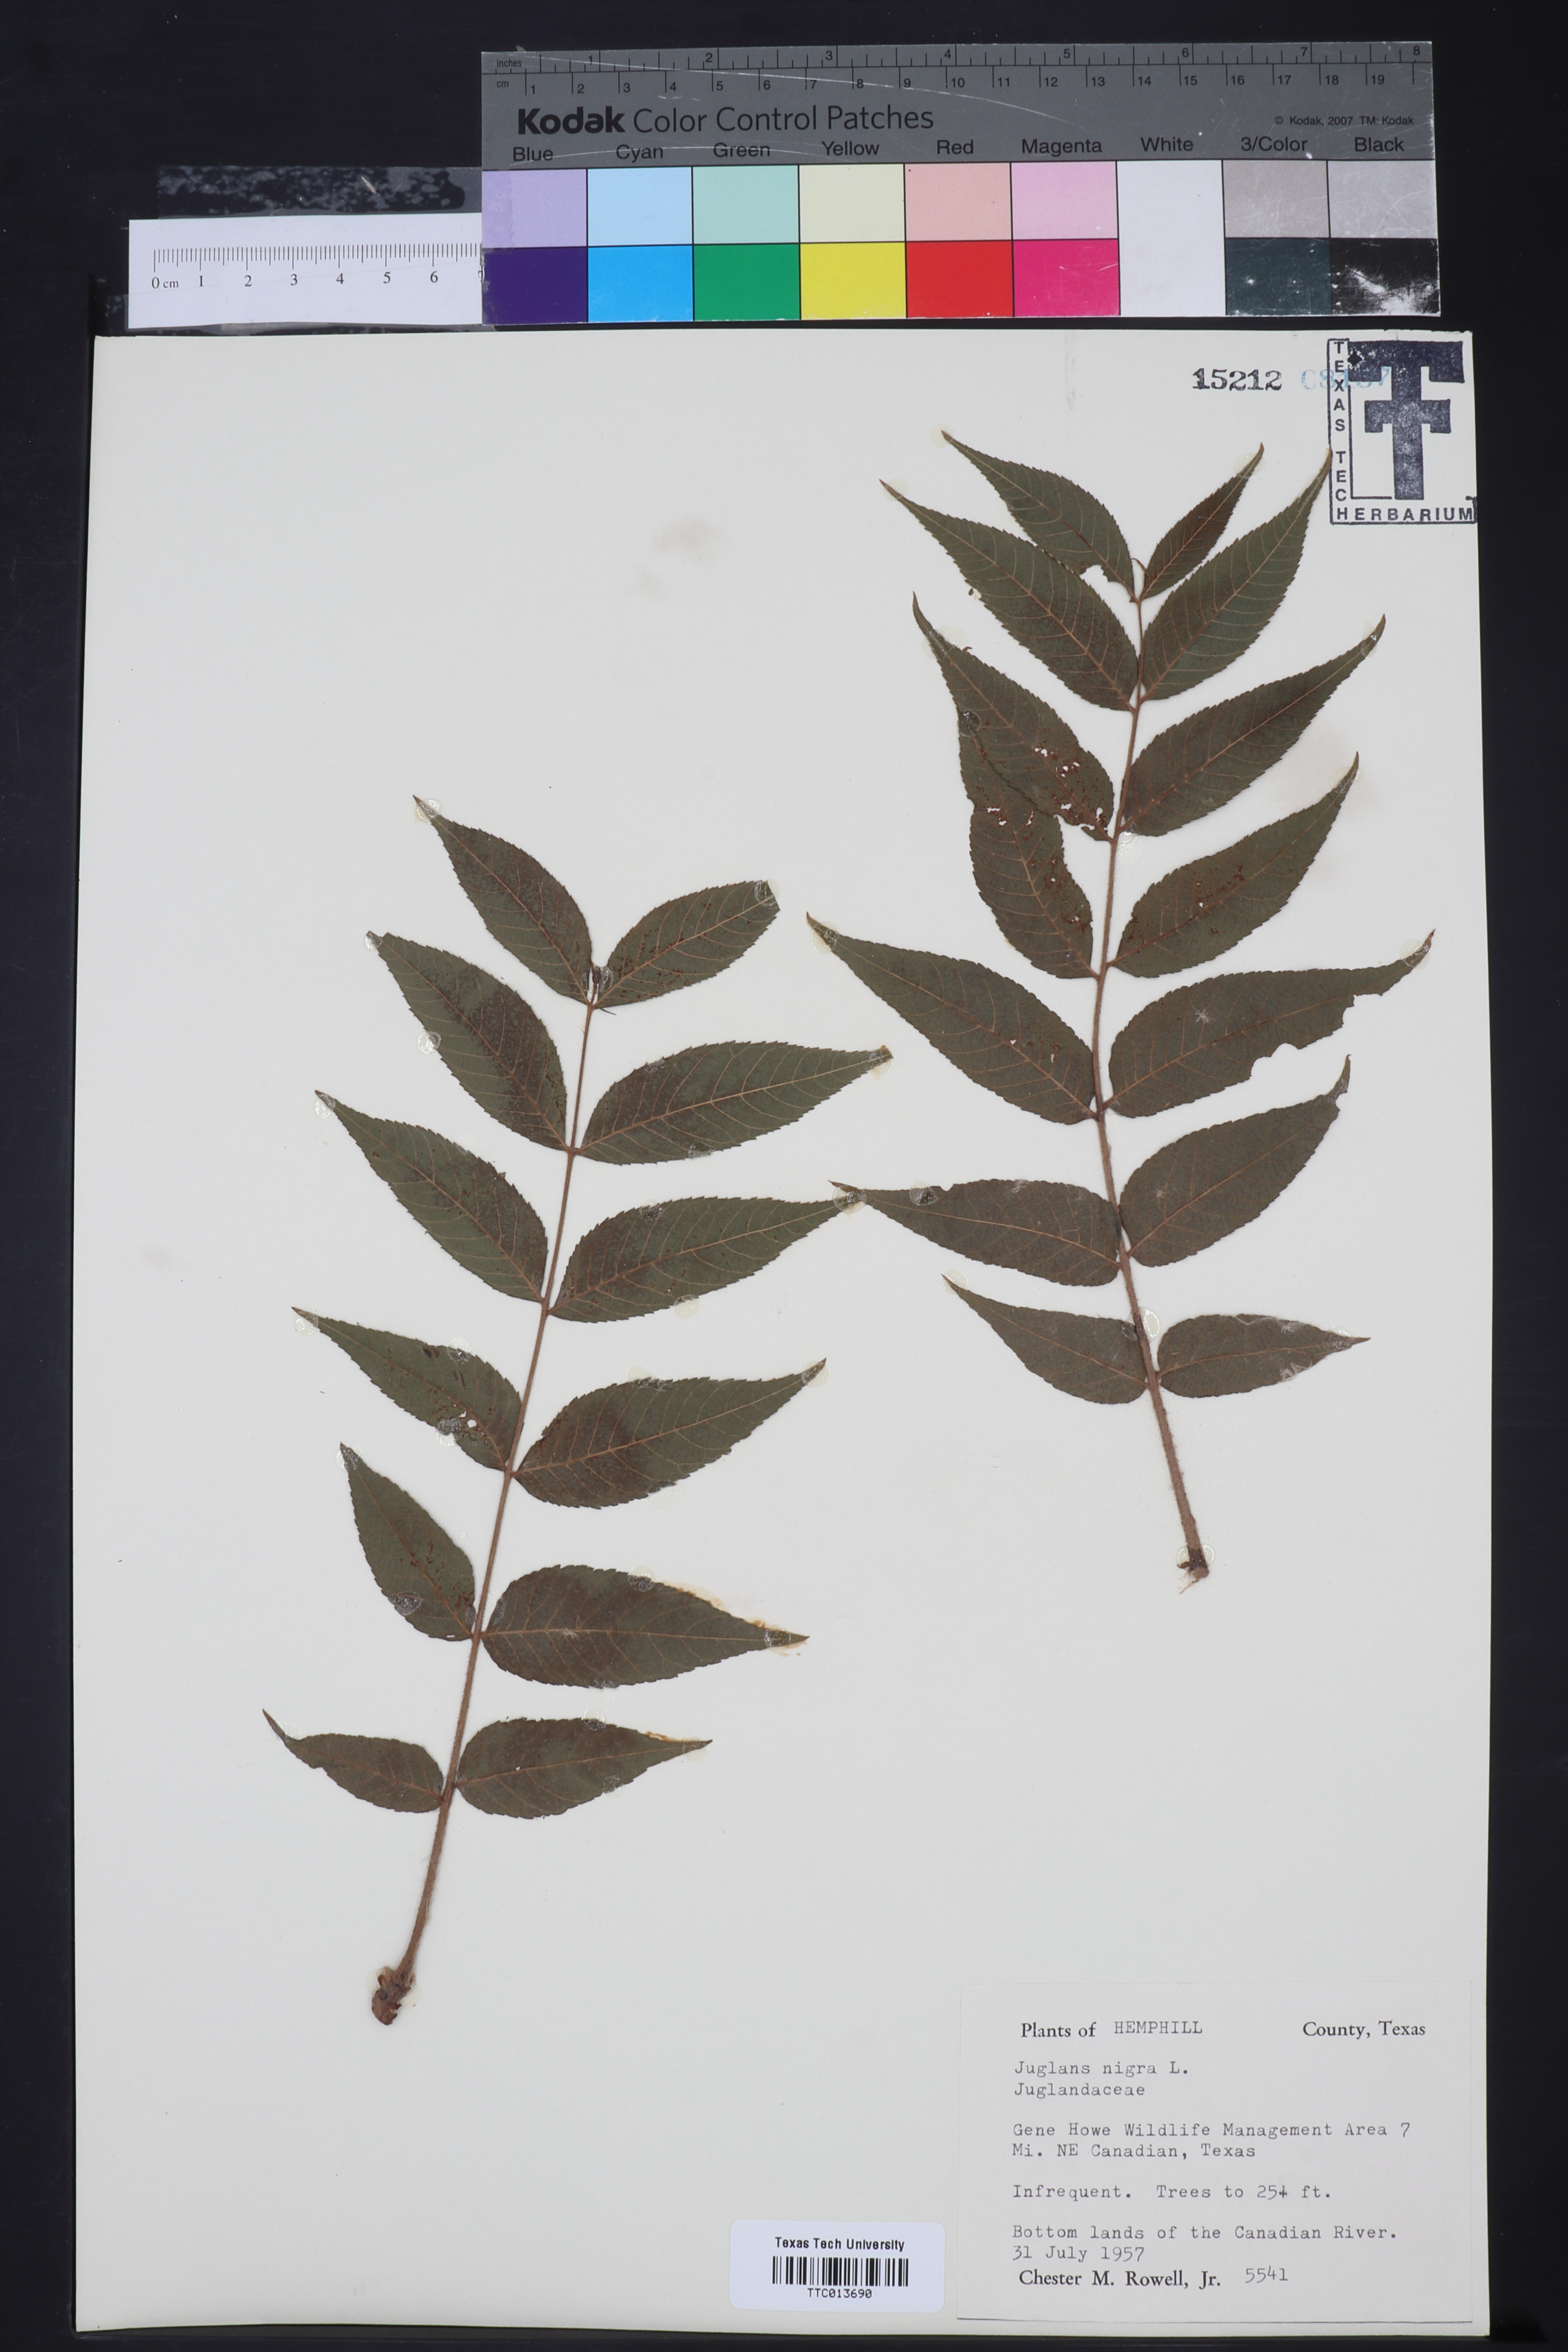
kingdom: Plantae
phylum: Tracheophyta
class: Magnoliopsida
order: Fagales
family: Juglandaceae
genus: Juglans
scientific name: Juglans nigra
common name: Black walnut
